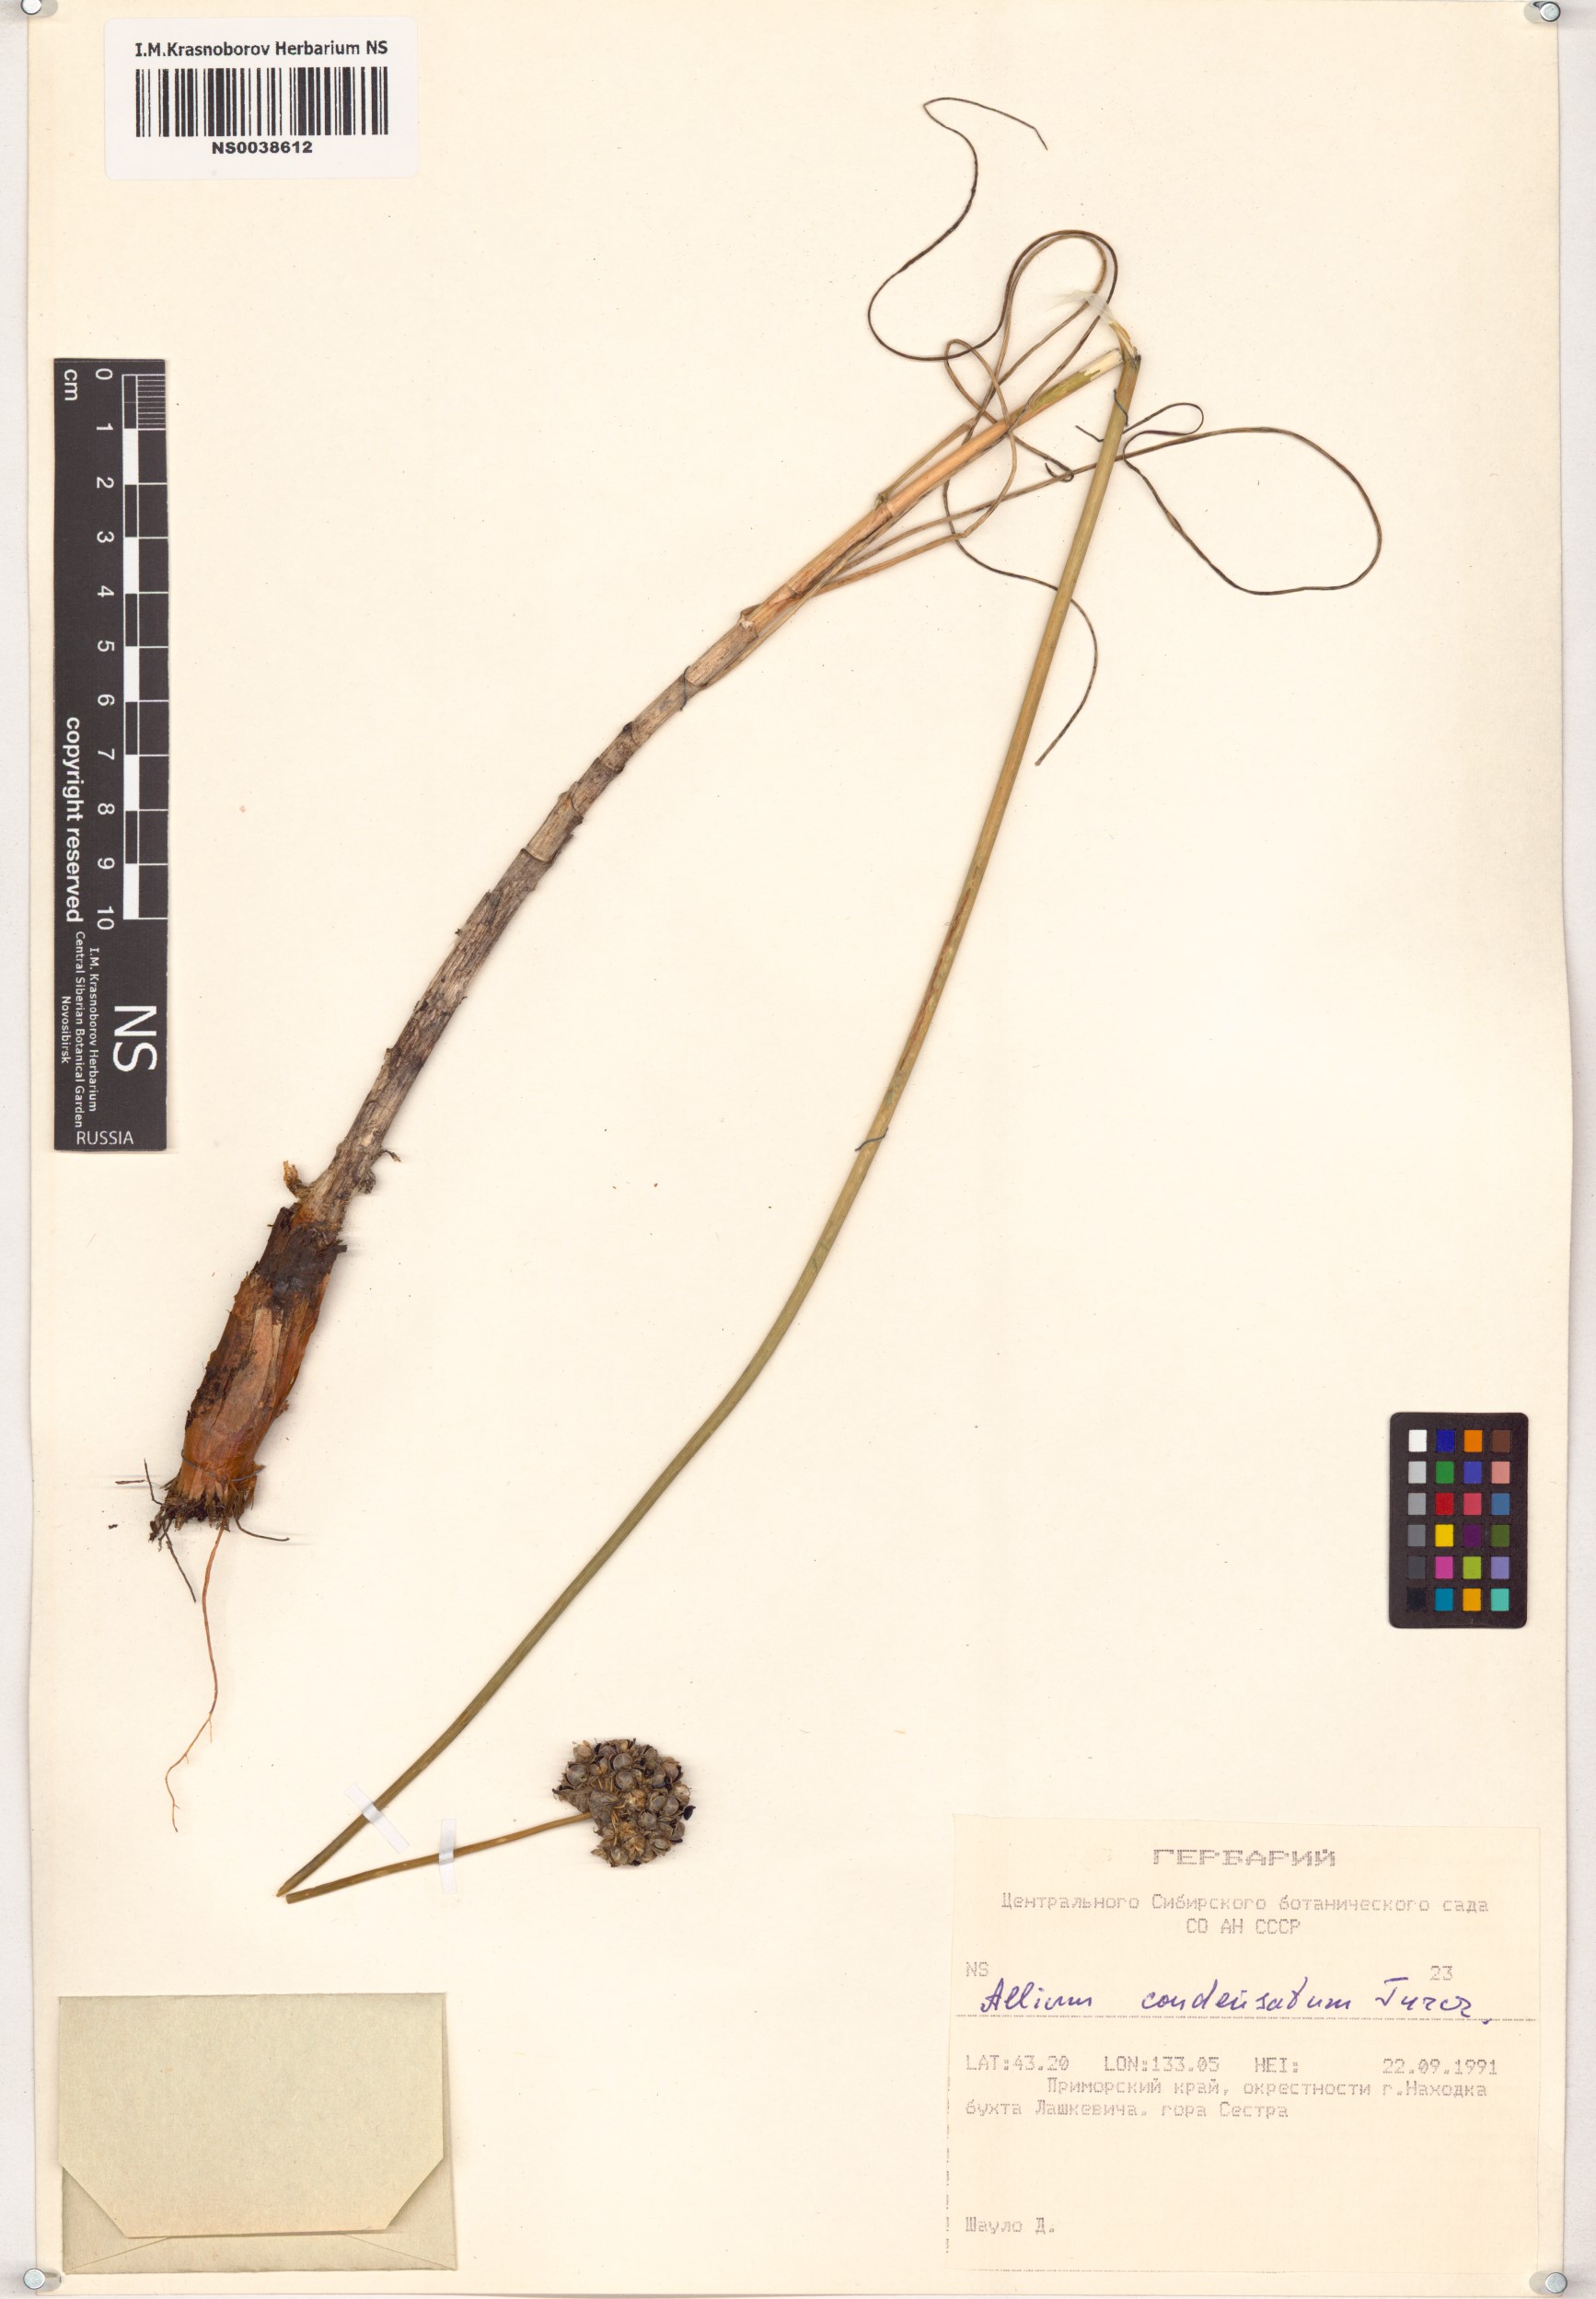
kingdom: Plantae
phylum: Tracheophyta
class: Liliopsida
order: Asparagales
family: Amaryllidaceae
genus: Allium
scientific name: Allium condensatum
